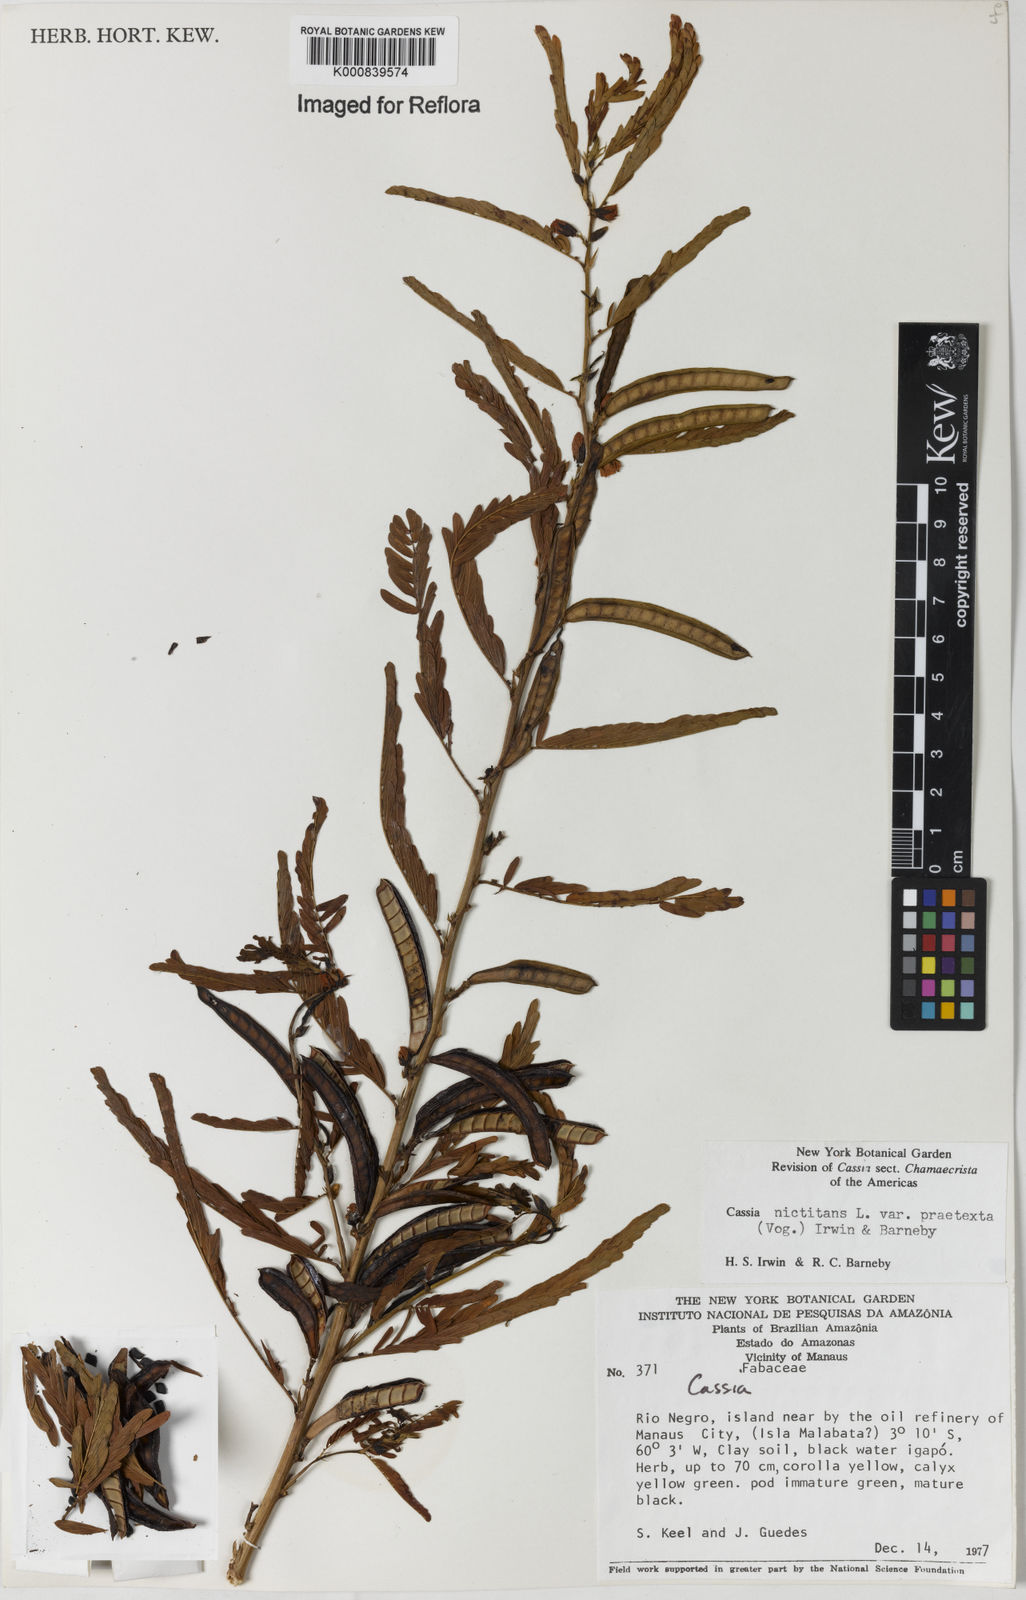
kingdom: Plantae
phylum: Tracheophyta
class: Magnoliopsida
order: Fabales
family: Fabaceae
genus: Chamaecrista
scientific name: Chamaecrista nictitans
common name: Sensitive cassia
